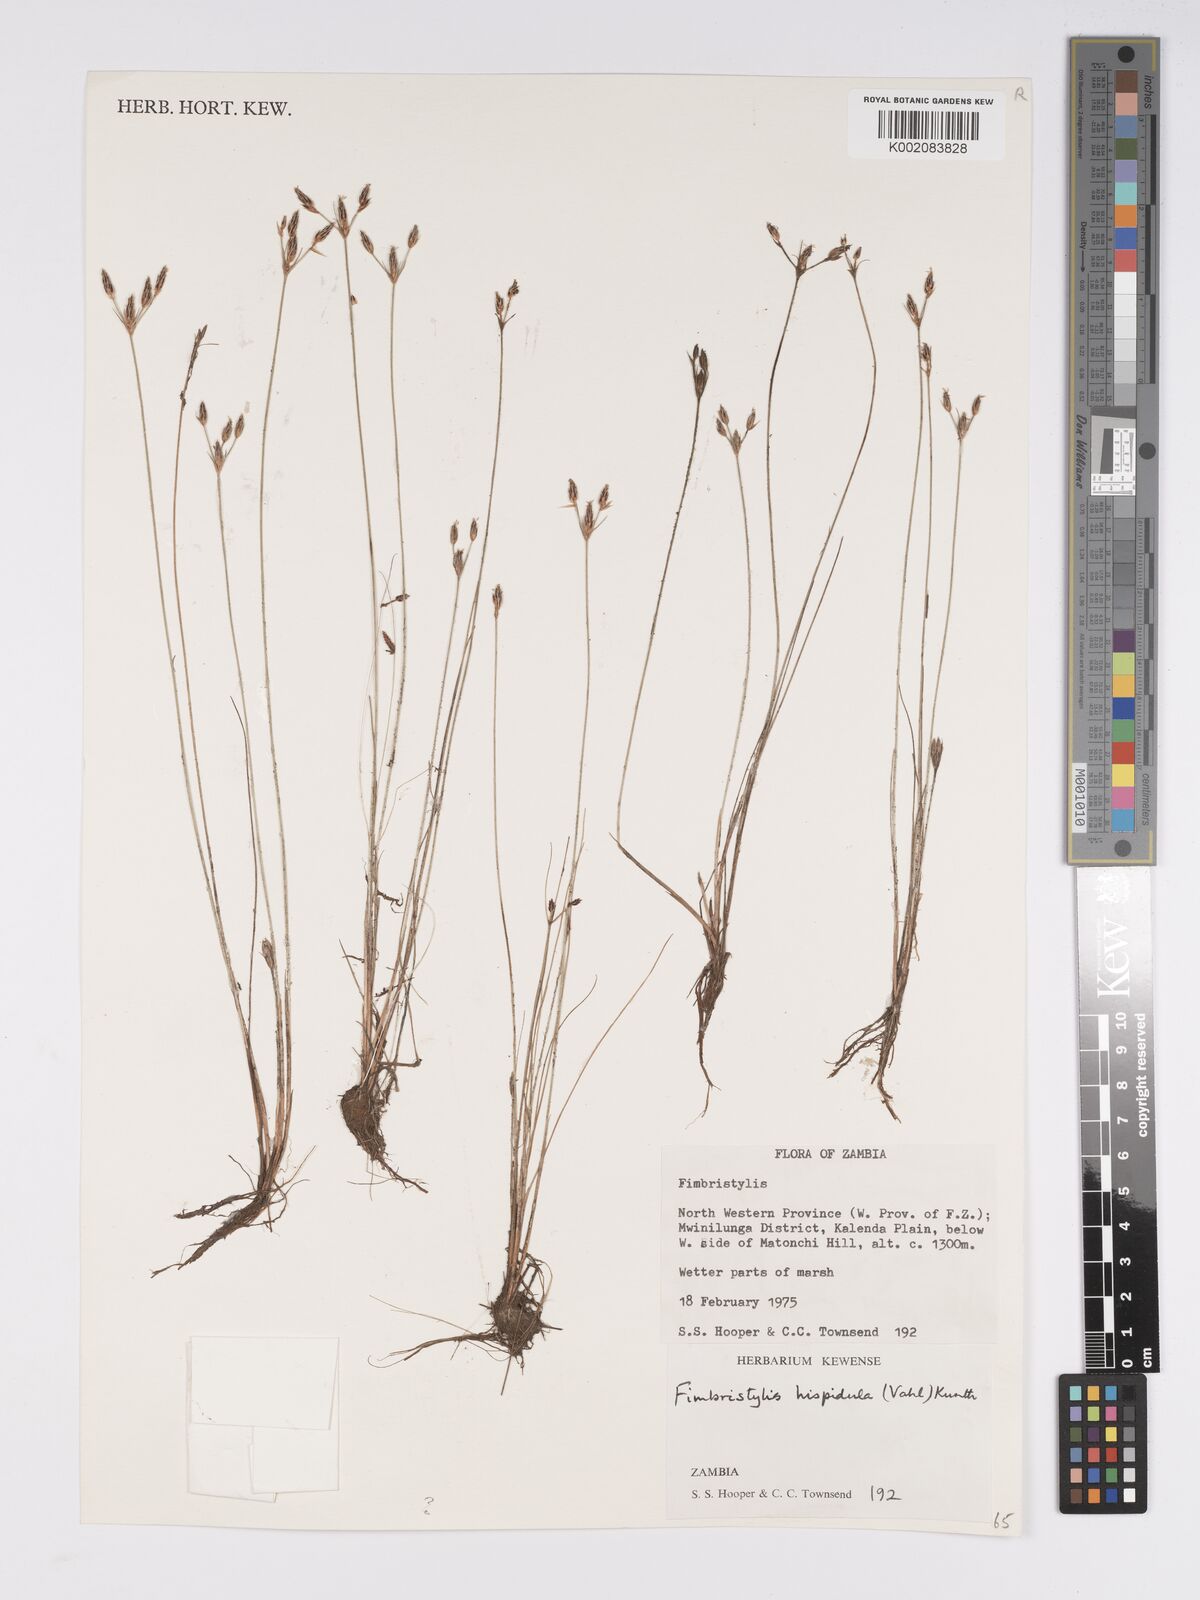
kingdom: Plantae
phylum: Tracheophyta
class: Liliopsida
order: Poales
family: Cyperaceae
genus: Bulbostylis
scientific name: Bulbostylis hispidula
